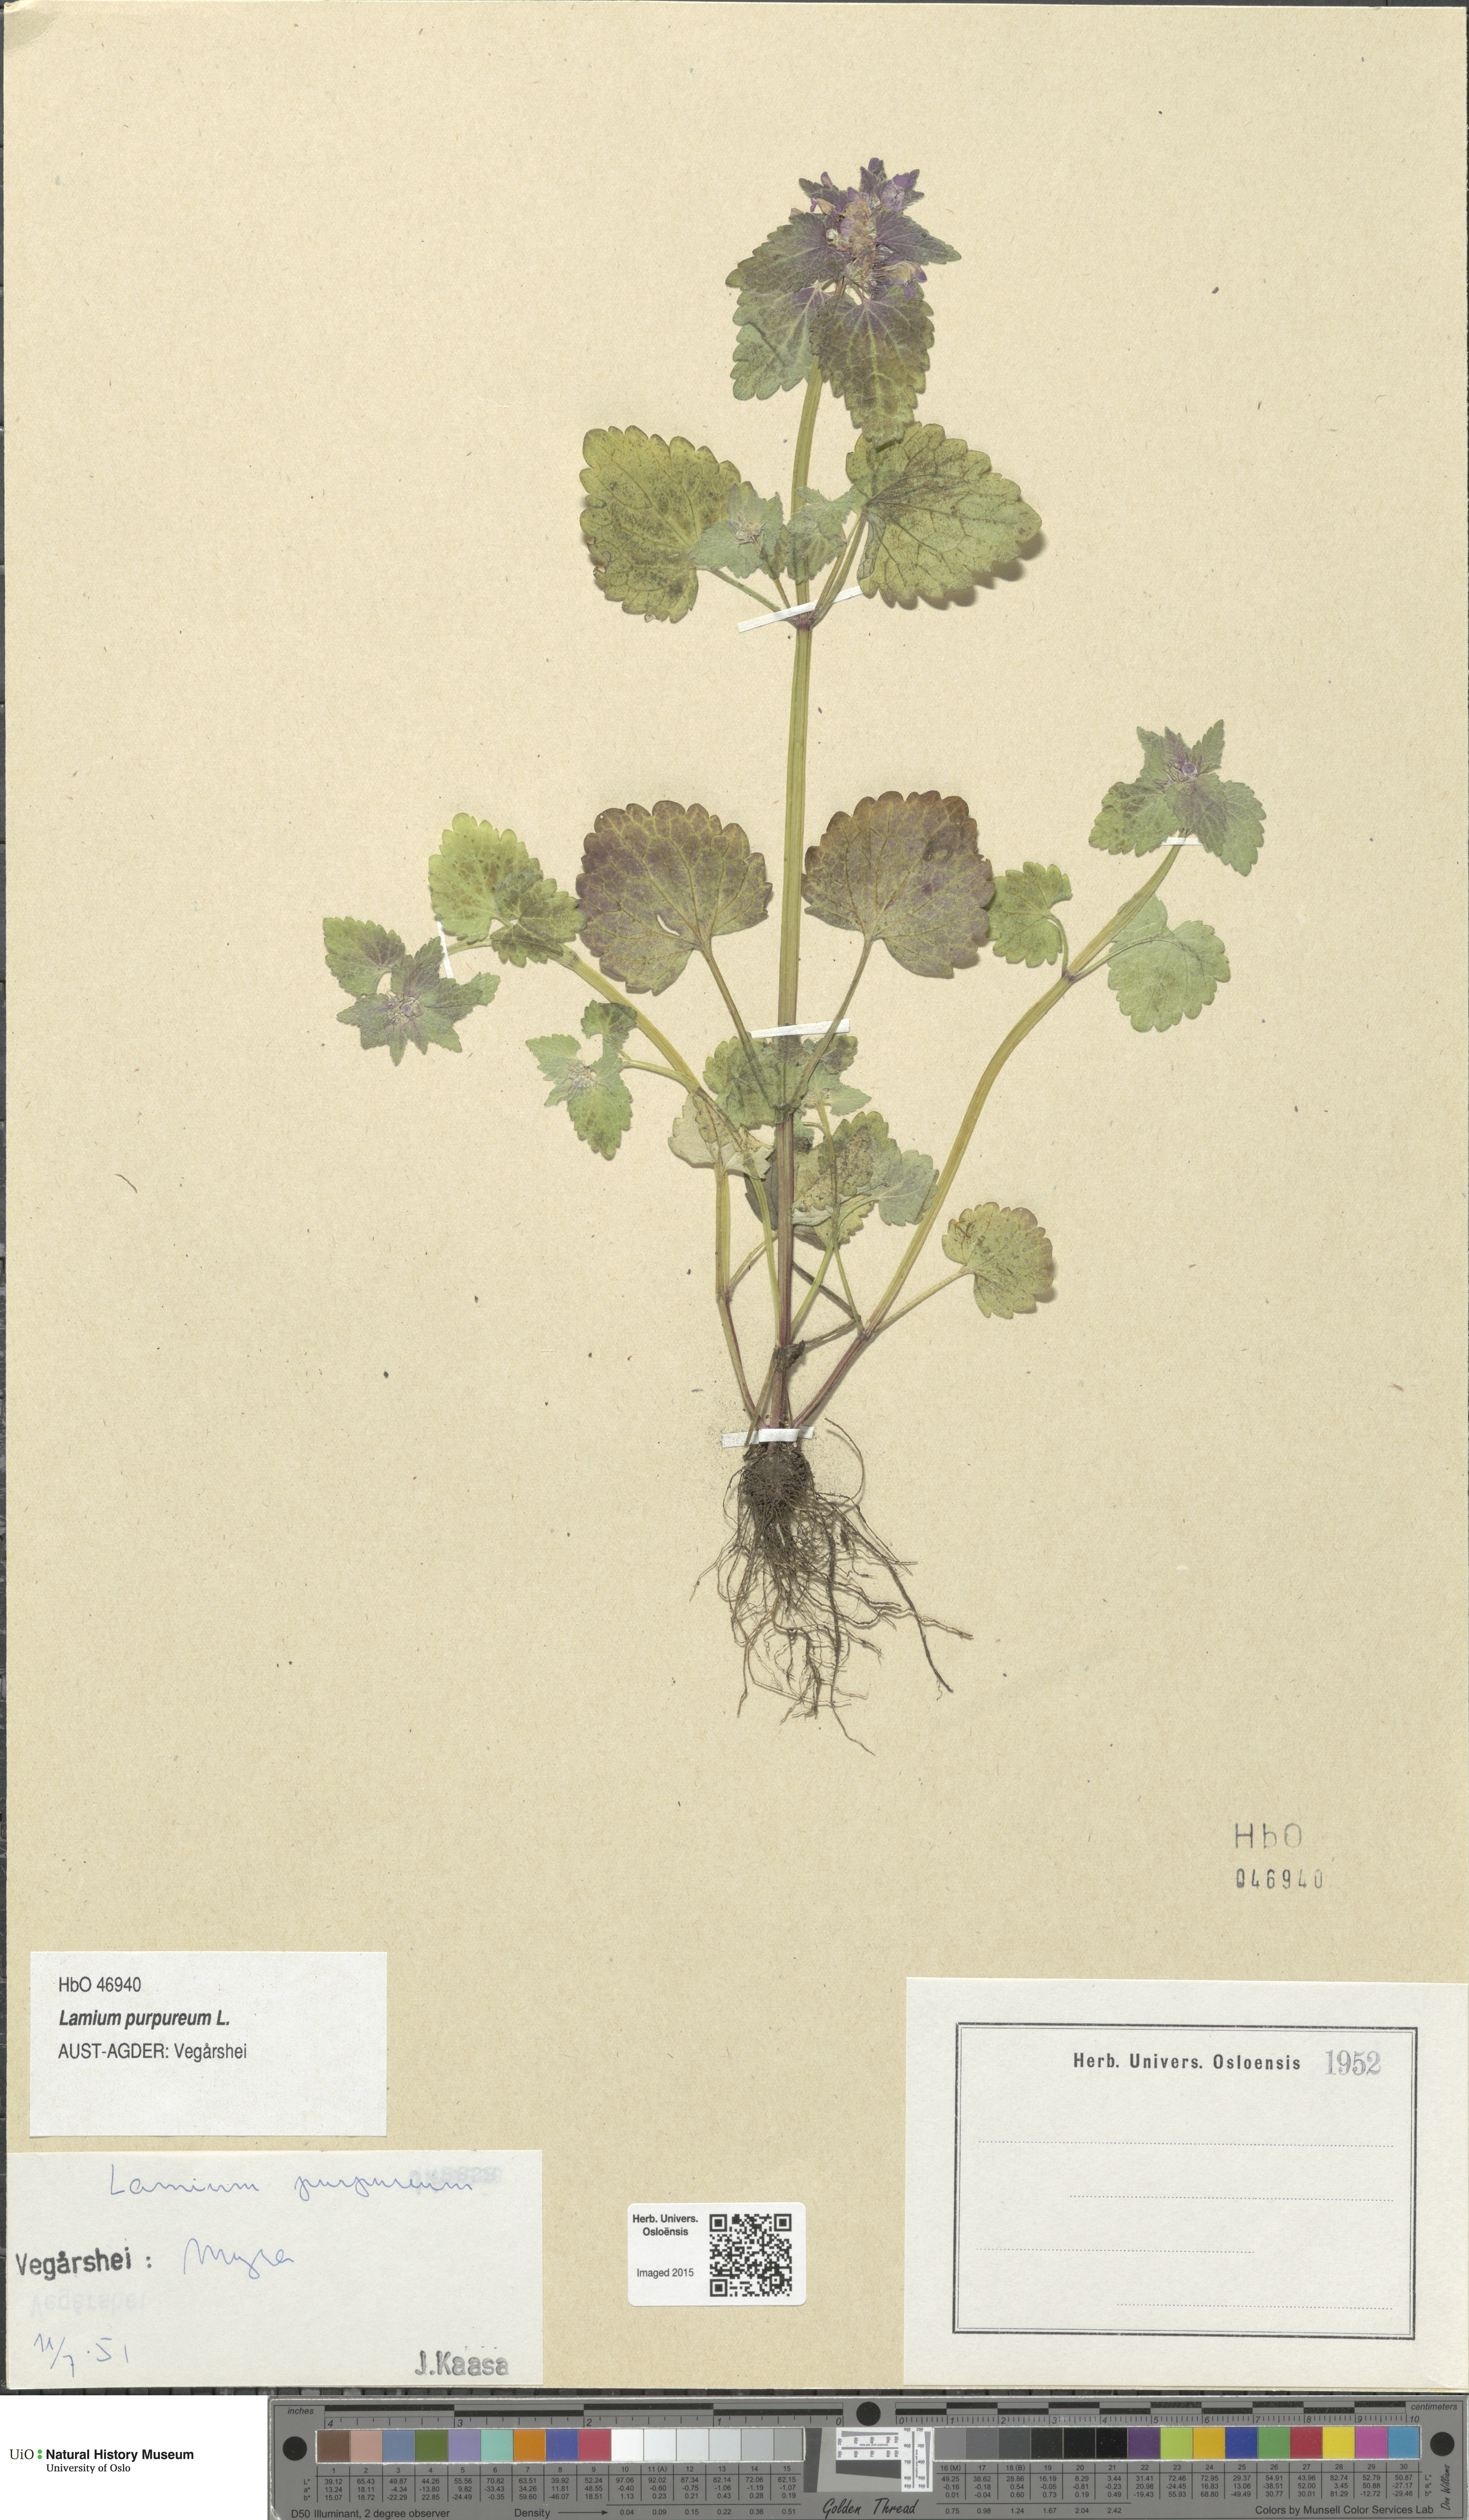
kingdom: Plantae
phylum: Tracheophyta
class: Magnoliopsida
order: Lamiales
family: Lamiaceae
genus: Lamium
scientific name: Lamium purpureum
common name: Red dead-nettle
